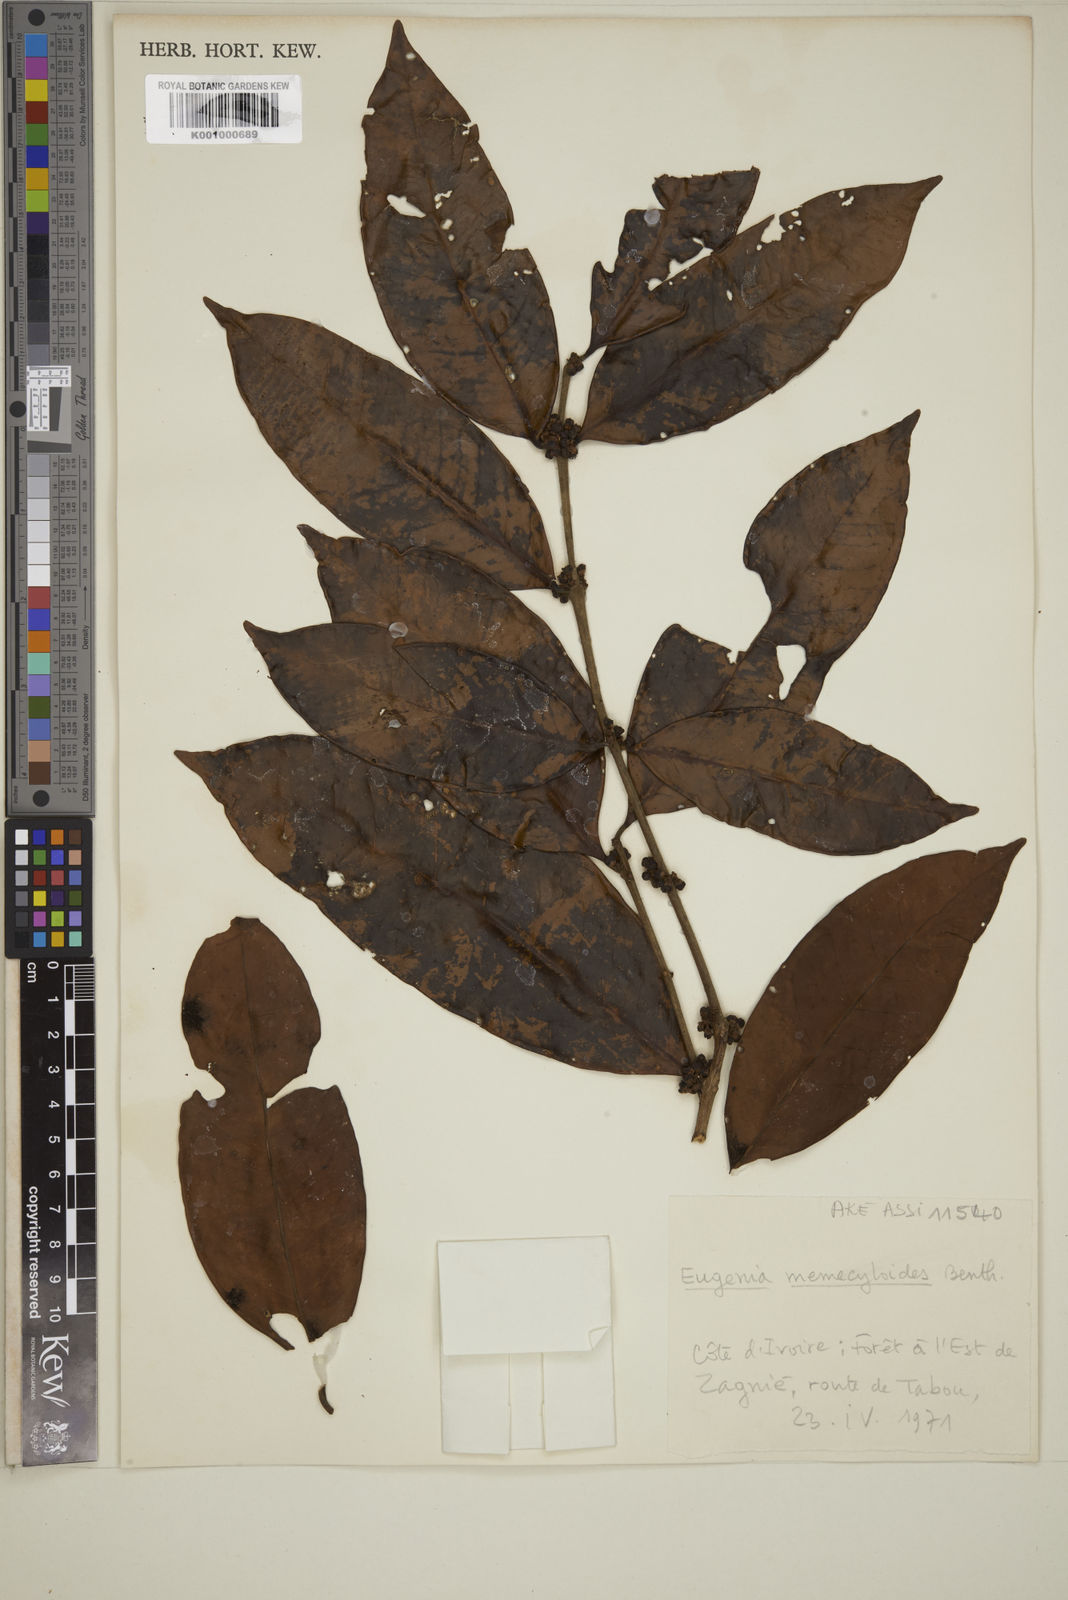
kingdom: Plantae
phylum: Tracheophyta
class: Magnoliopsida
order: Myrtales
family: Myrtaceae
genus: Eugenia
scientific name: Eugenia memecyloides
